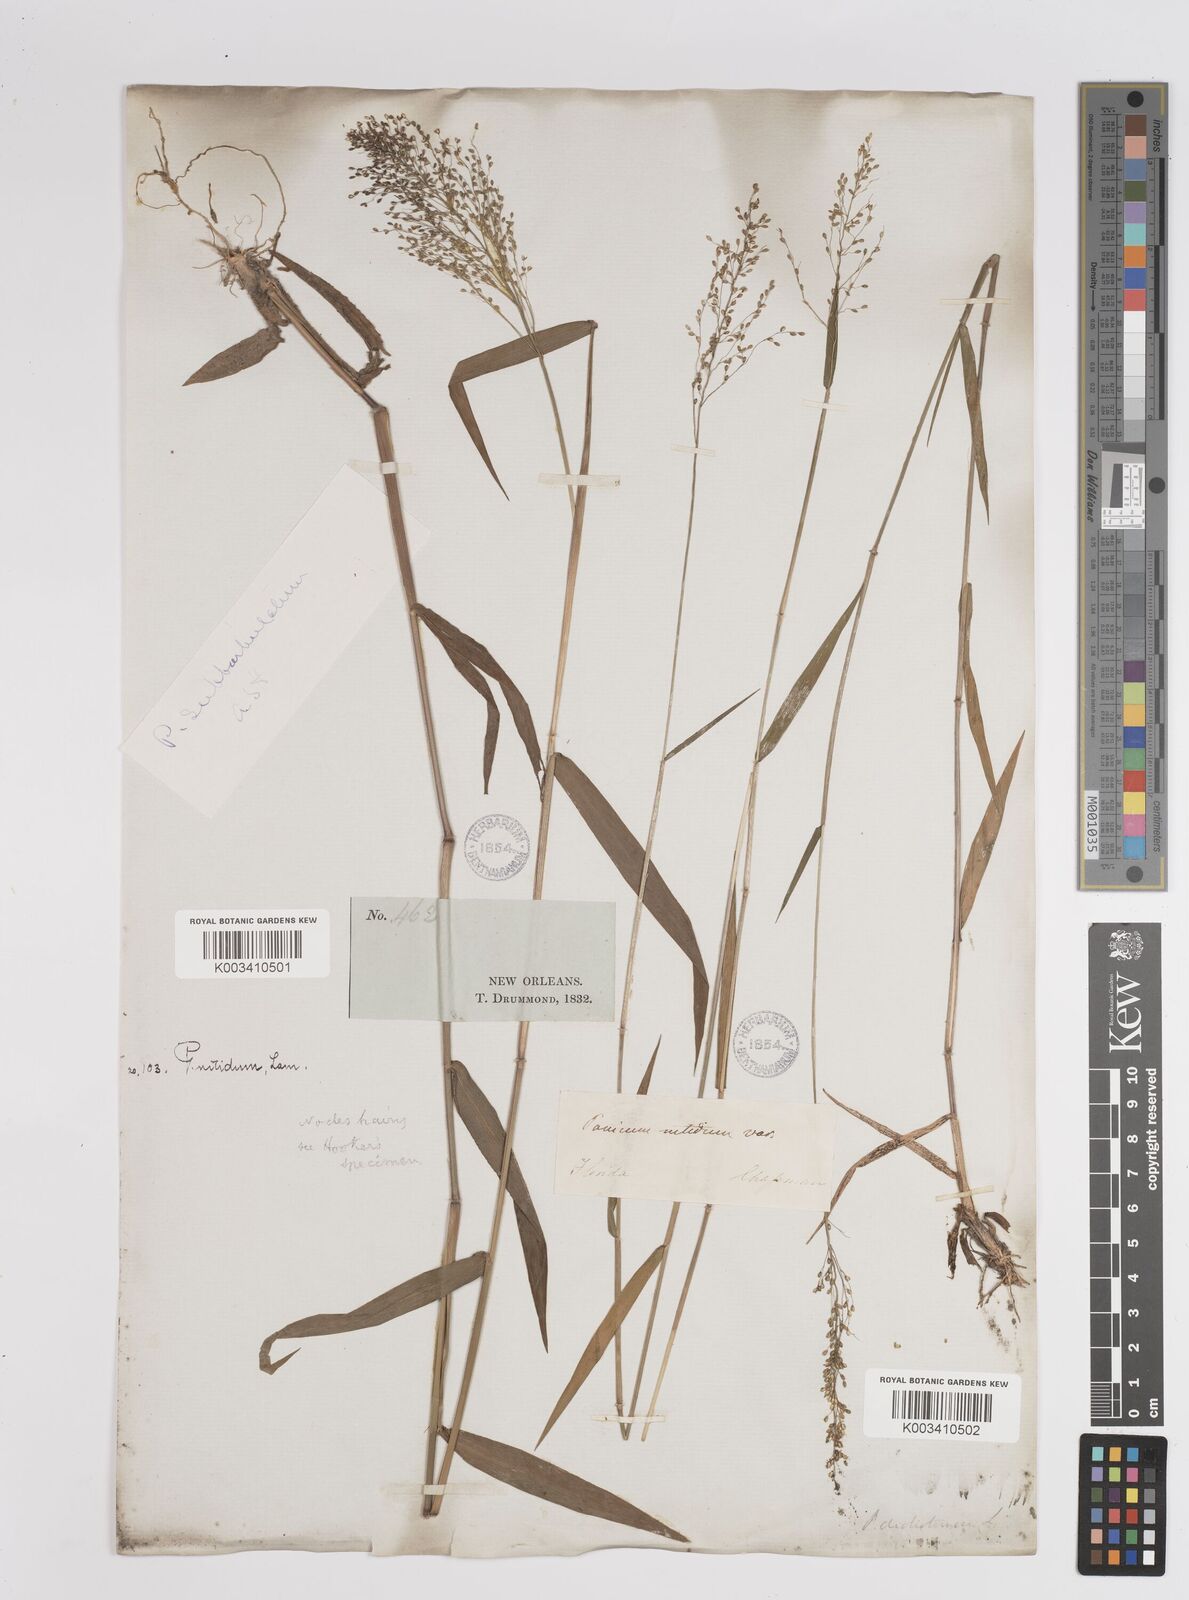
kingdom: Plantae
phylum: Tracheophyta
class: Liliopsida
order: Poales
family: Poaceae
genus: Dichanthelium
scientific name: Dichanthelium polyanthes
